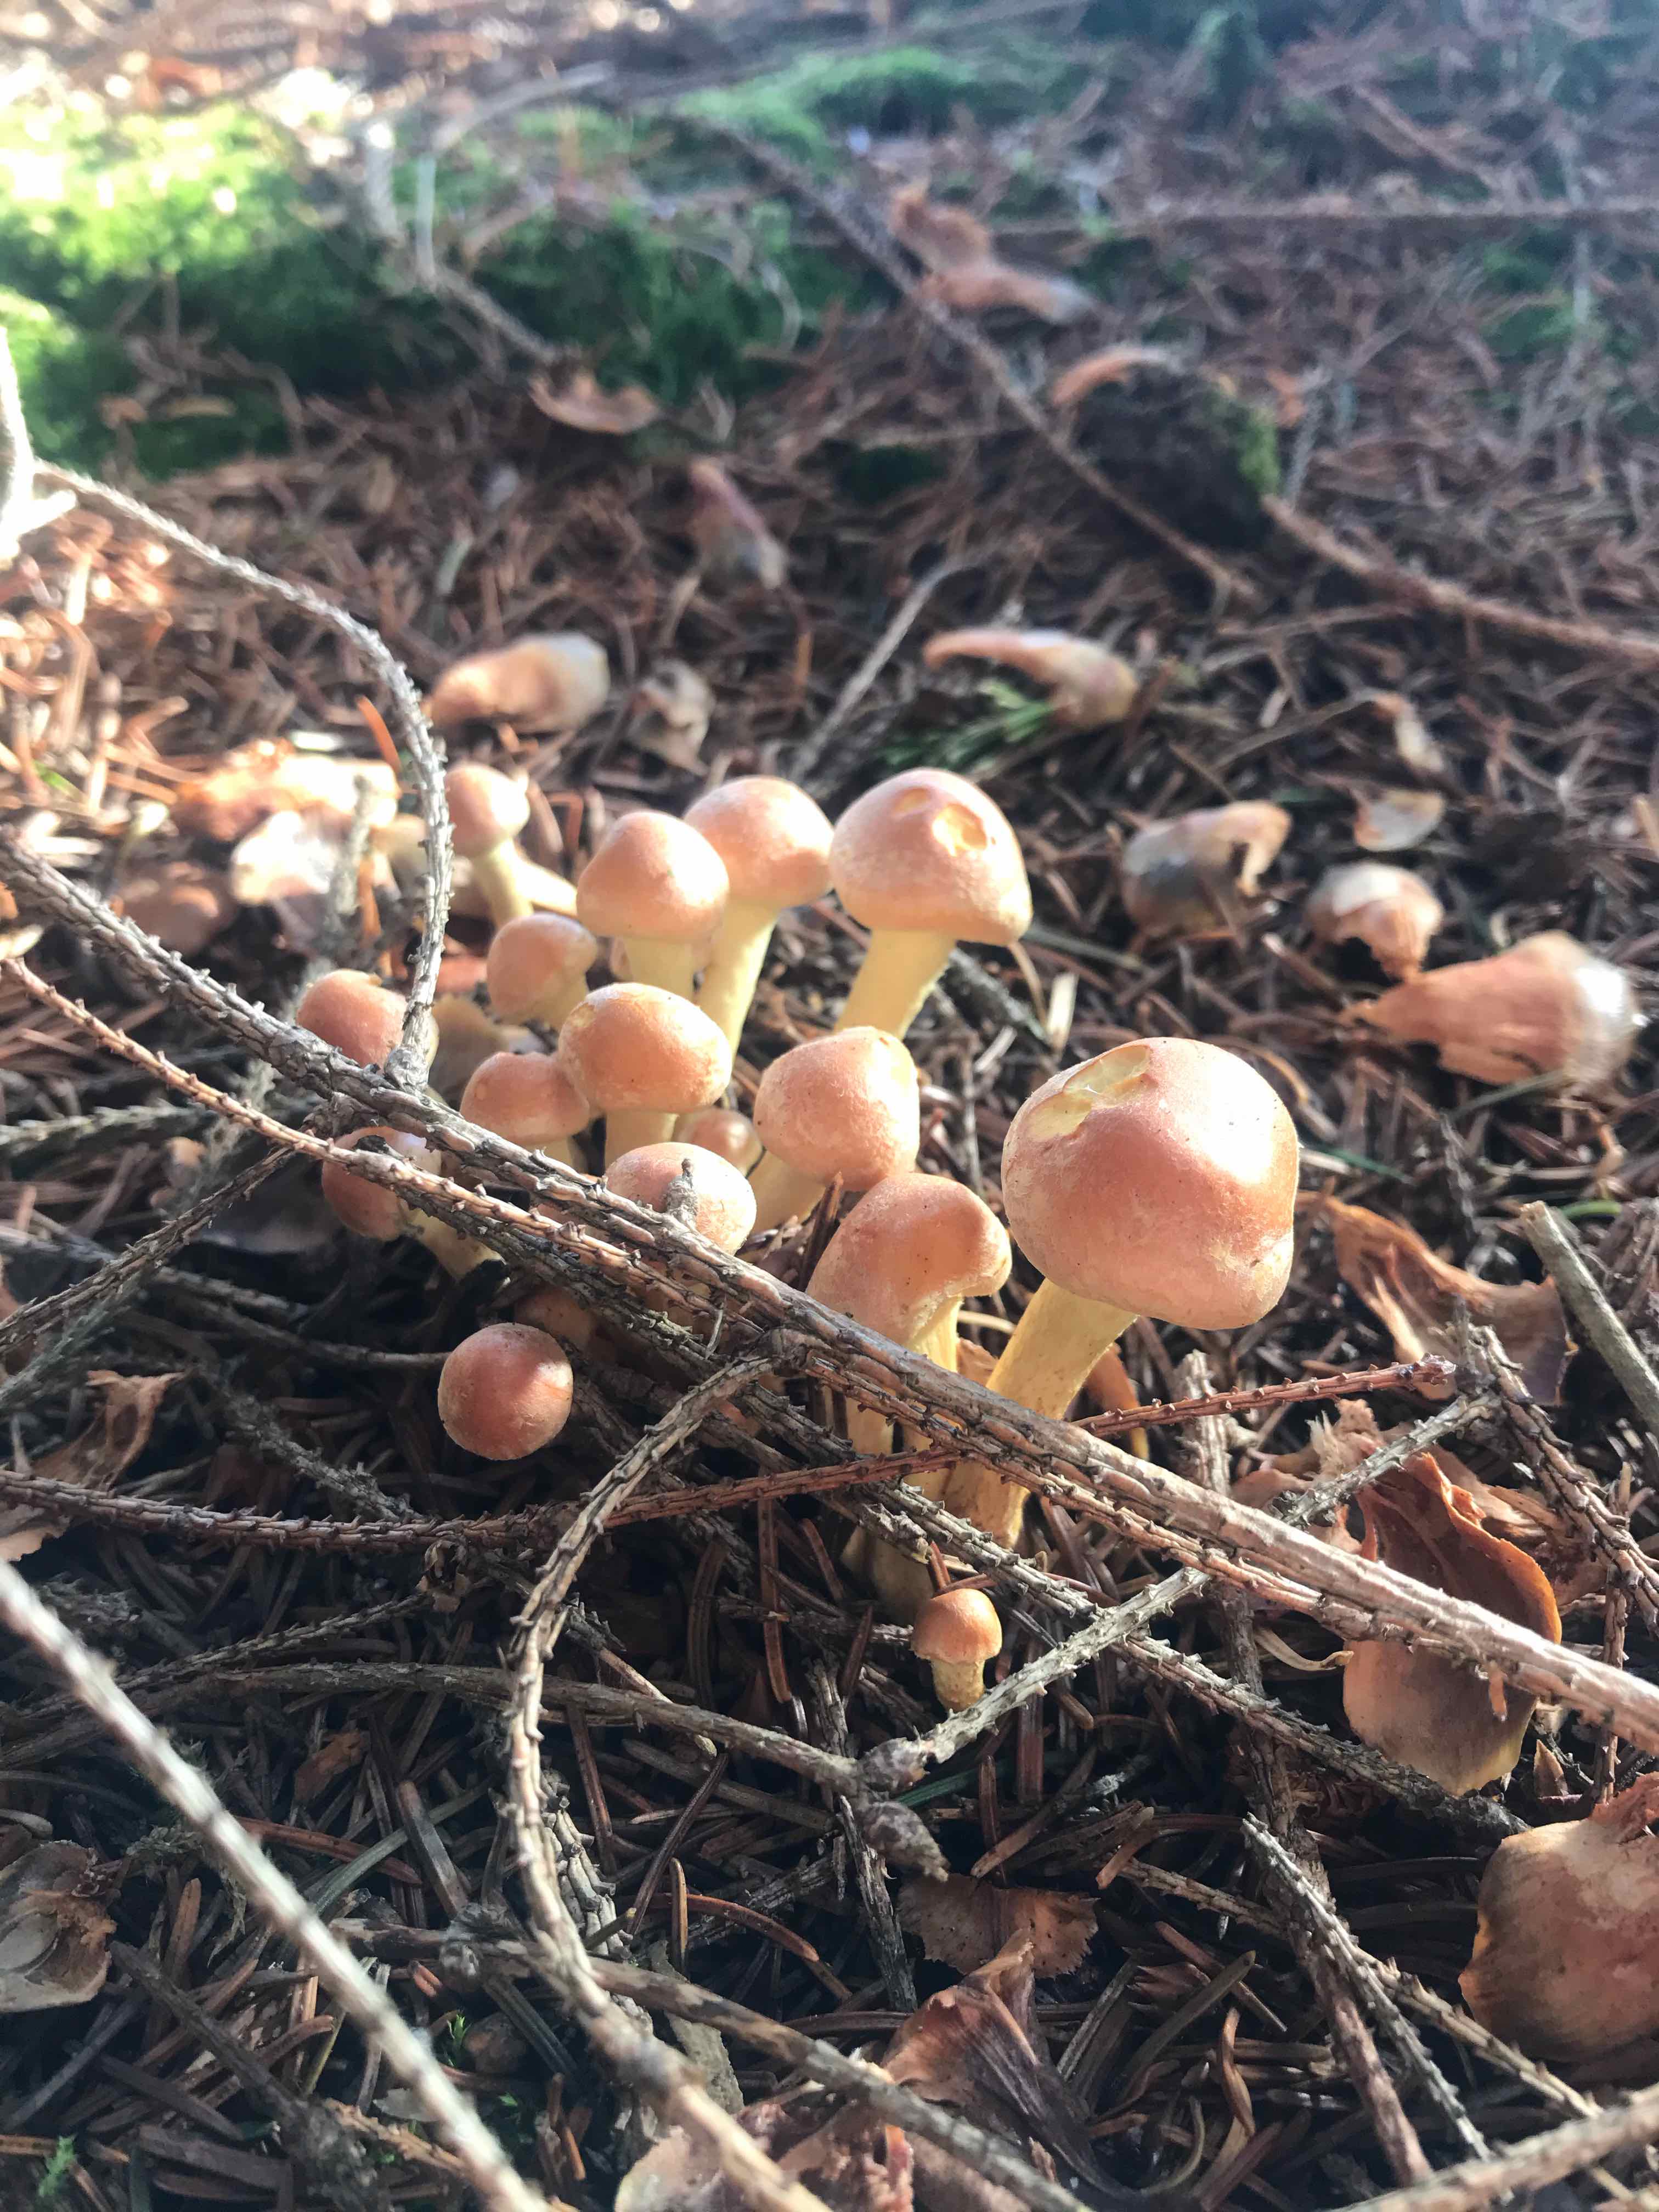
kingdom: Fungi
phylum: Basidiomycota
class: Agaricomycetes
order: Agaricales
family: Strophariaceae
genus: Hypholoma
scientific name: Hypholoma
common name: svovlhat
